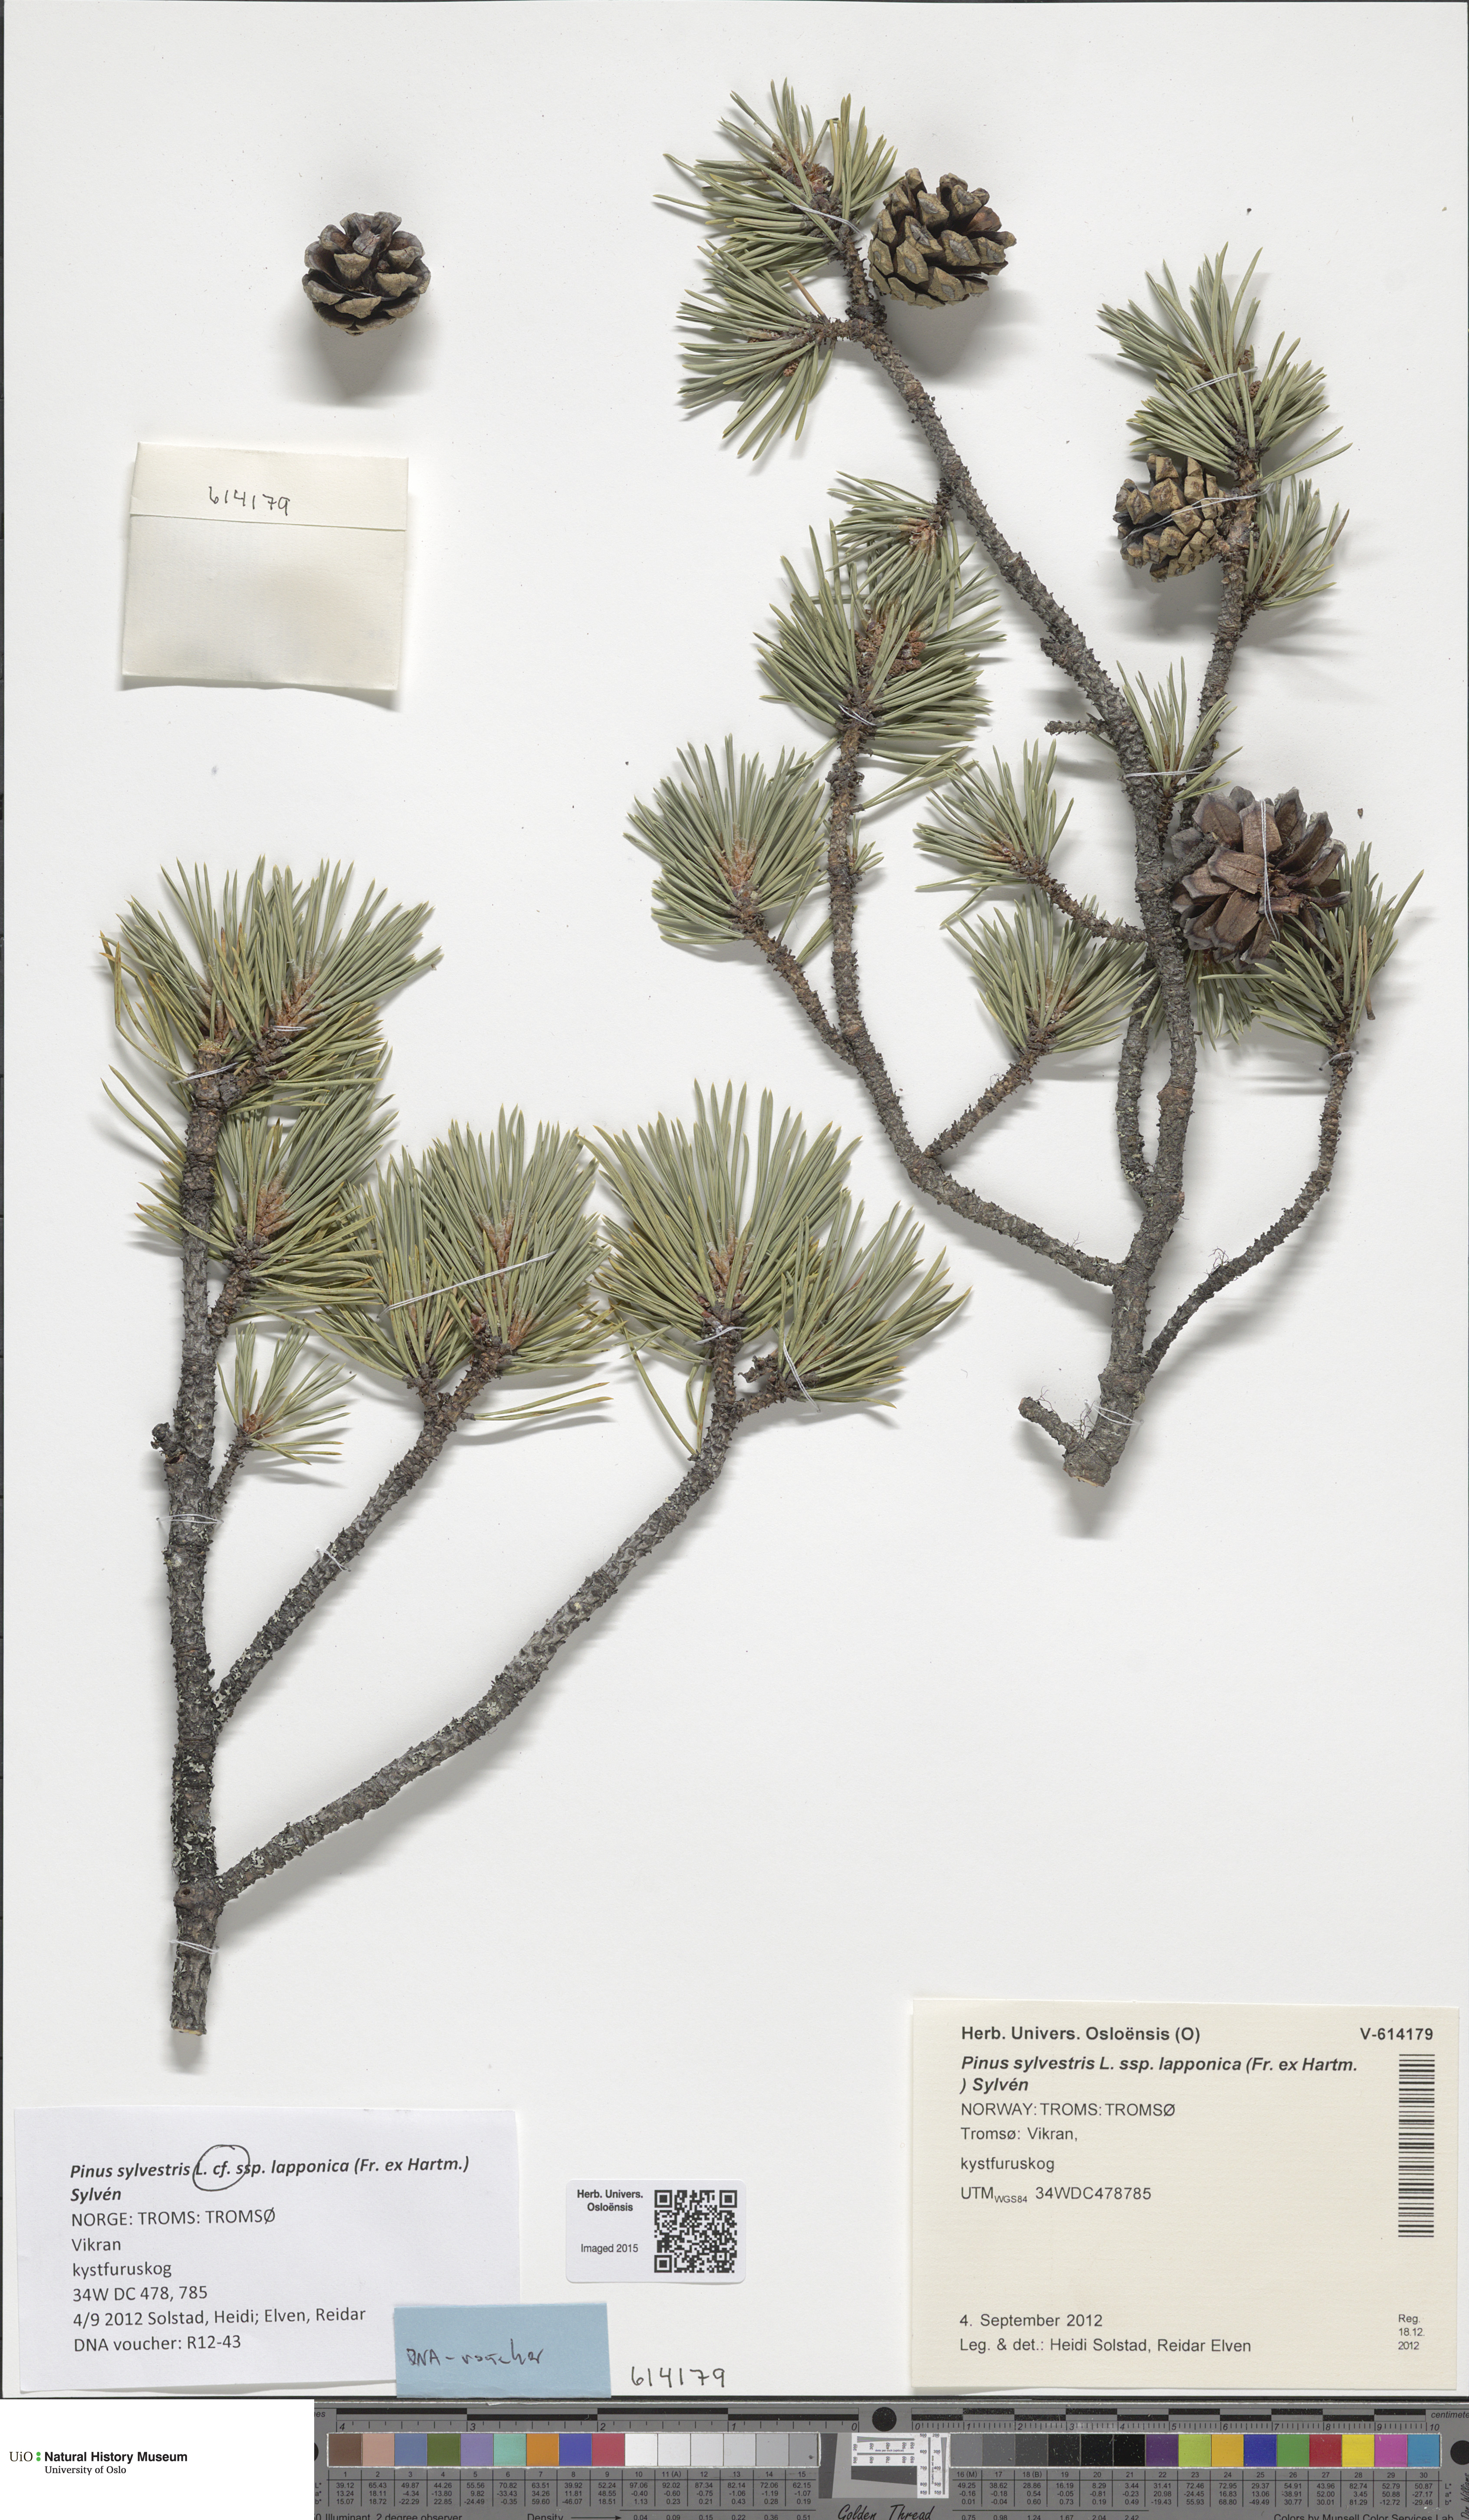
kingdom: Plantae
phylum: Tracheophyta
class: Pinopsida
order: Pinales
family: Pinaceae
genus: Pinus
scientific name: Pinus sylvestris
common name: Scots pine
